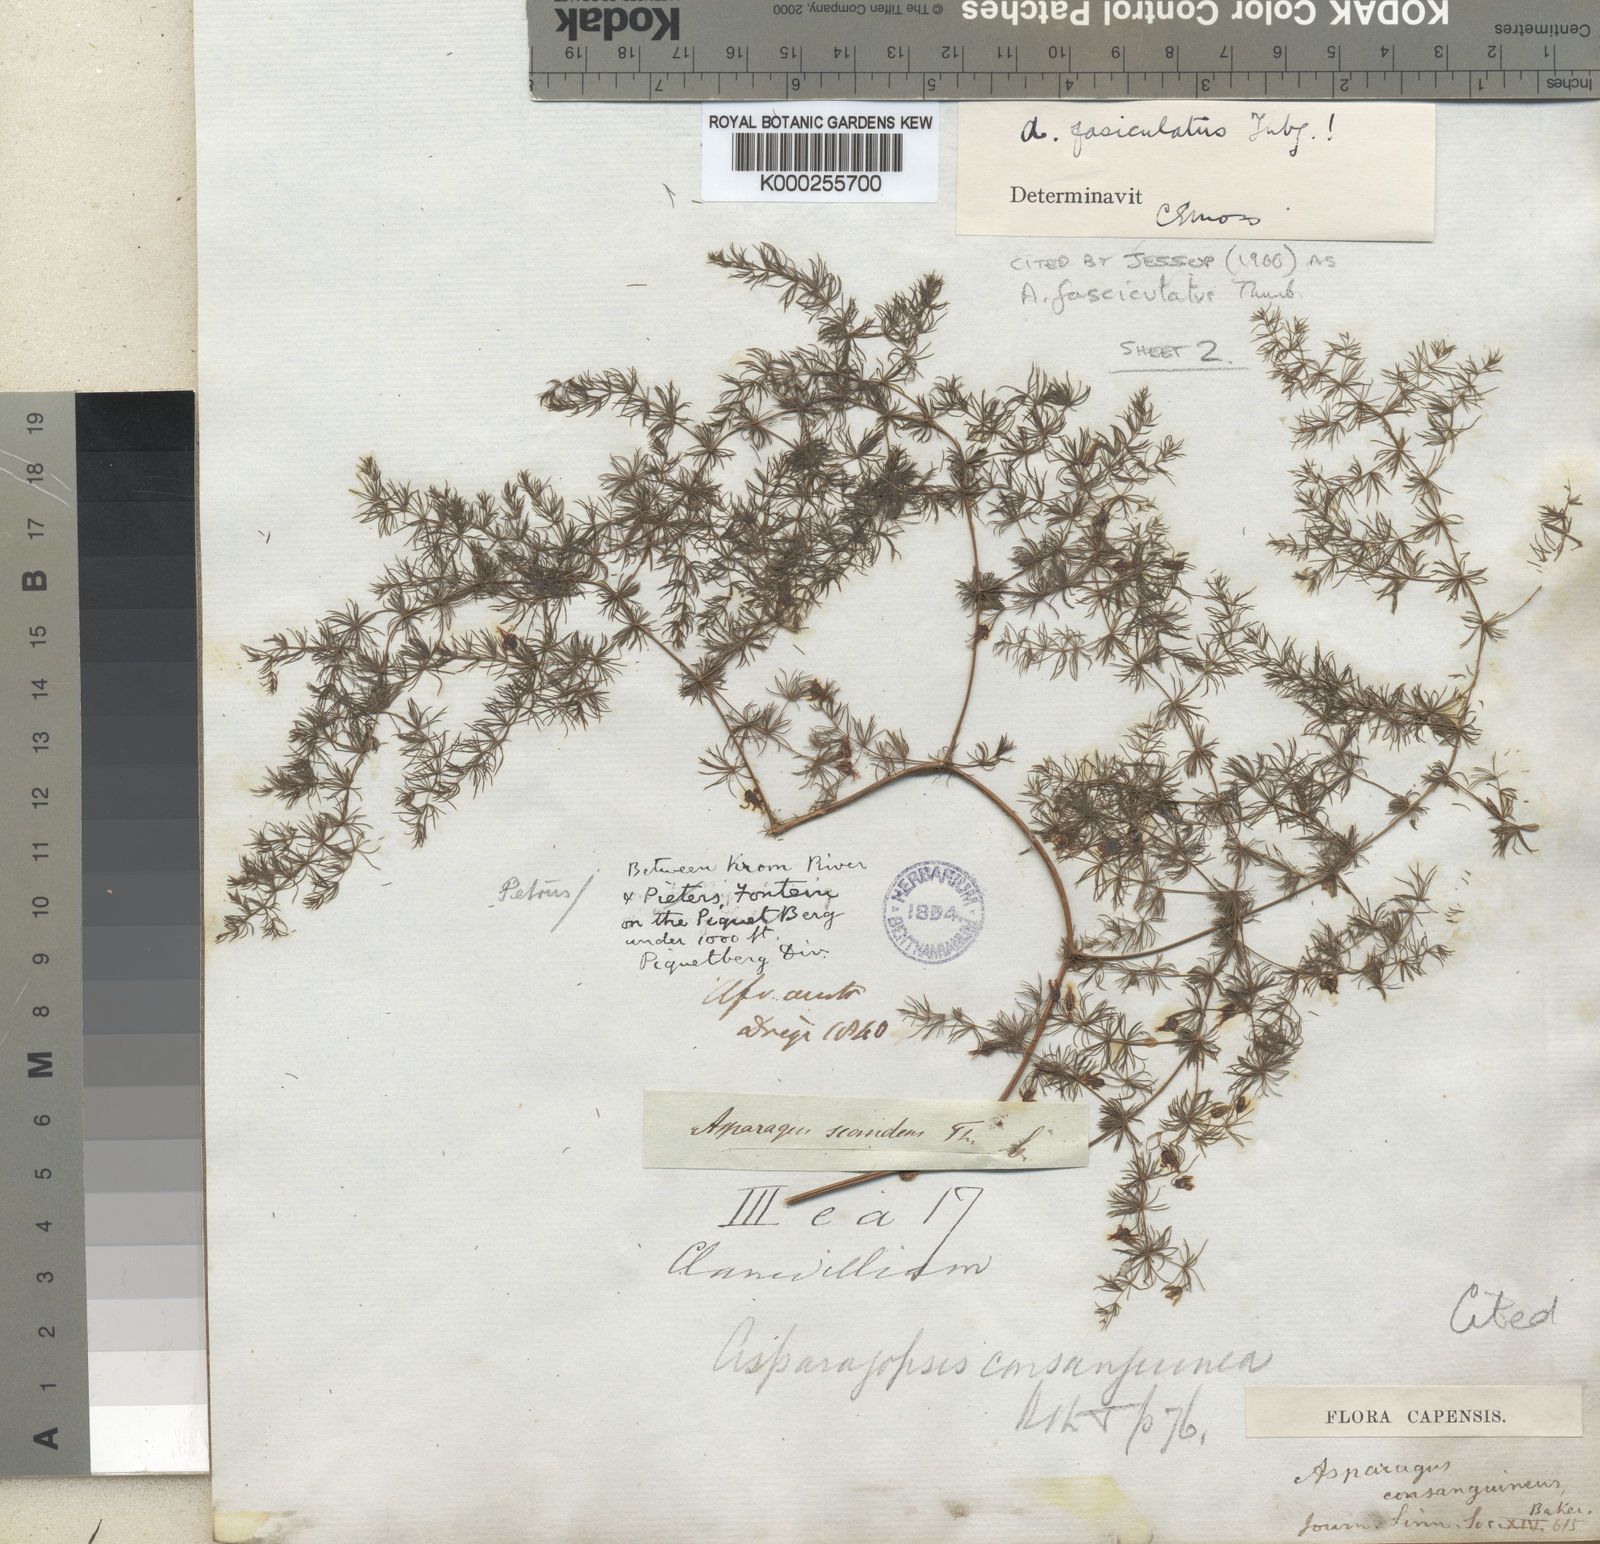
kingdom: Plantae
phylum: Tracheophyta
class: Liliopsida
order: Asparagales
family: Asparagaceae
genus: Asparagus
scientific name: Asparagus fasciculatus
